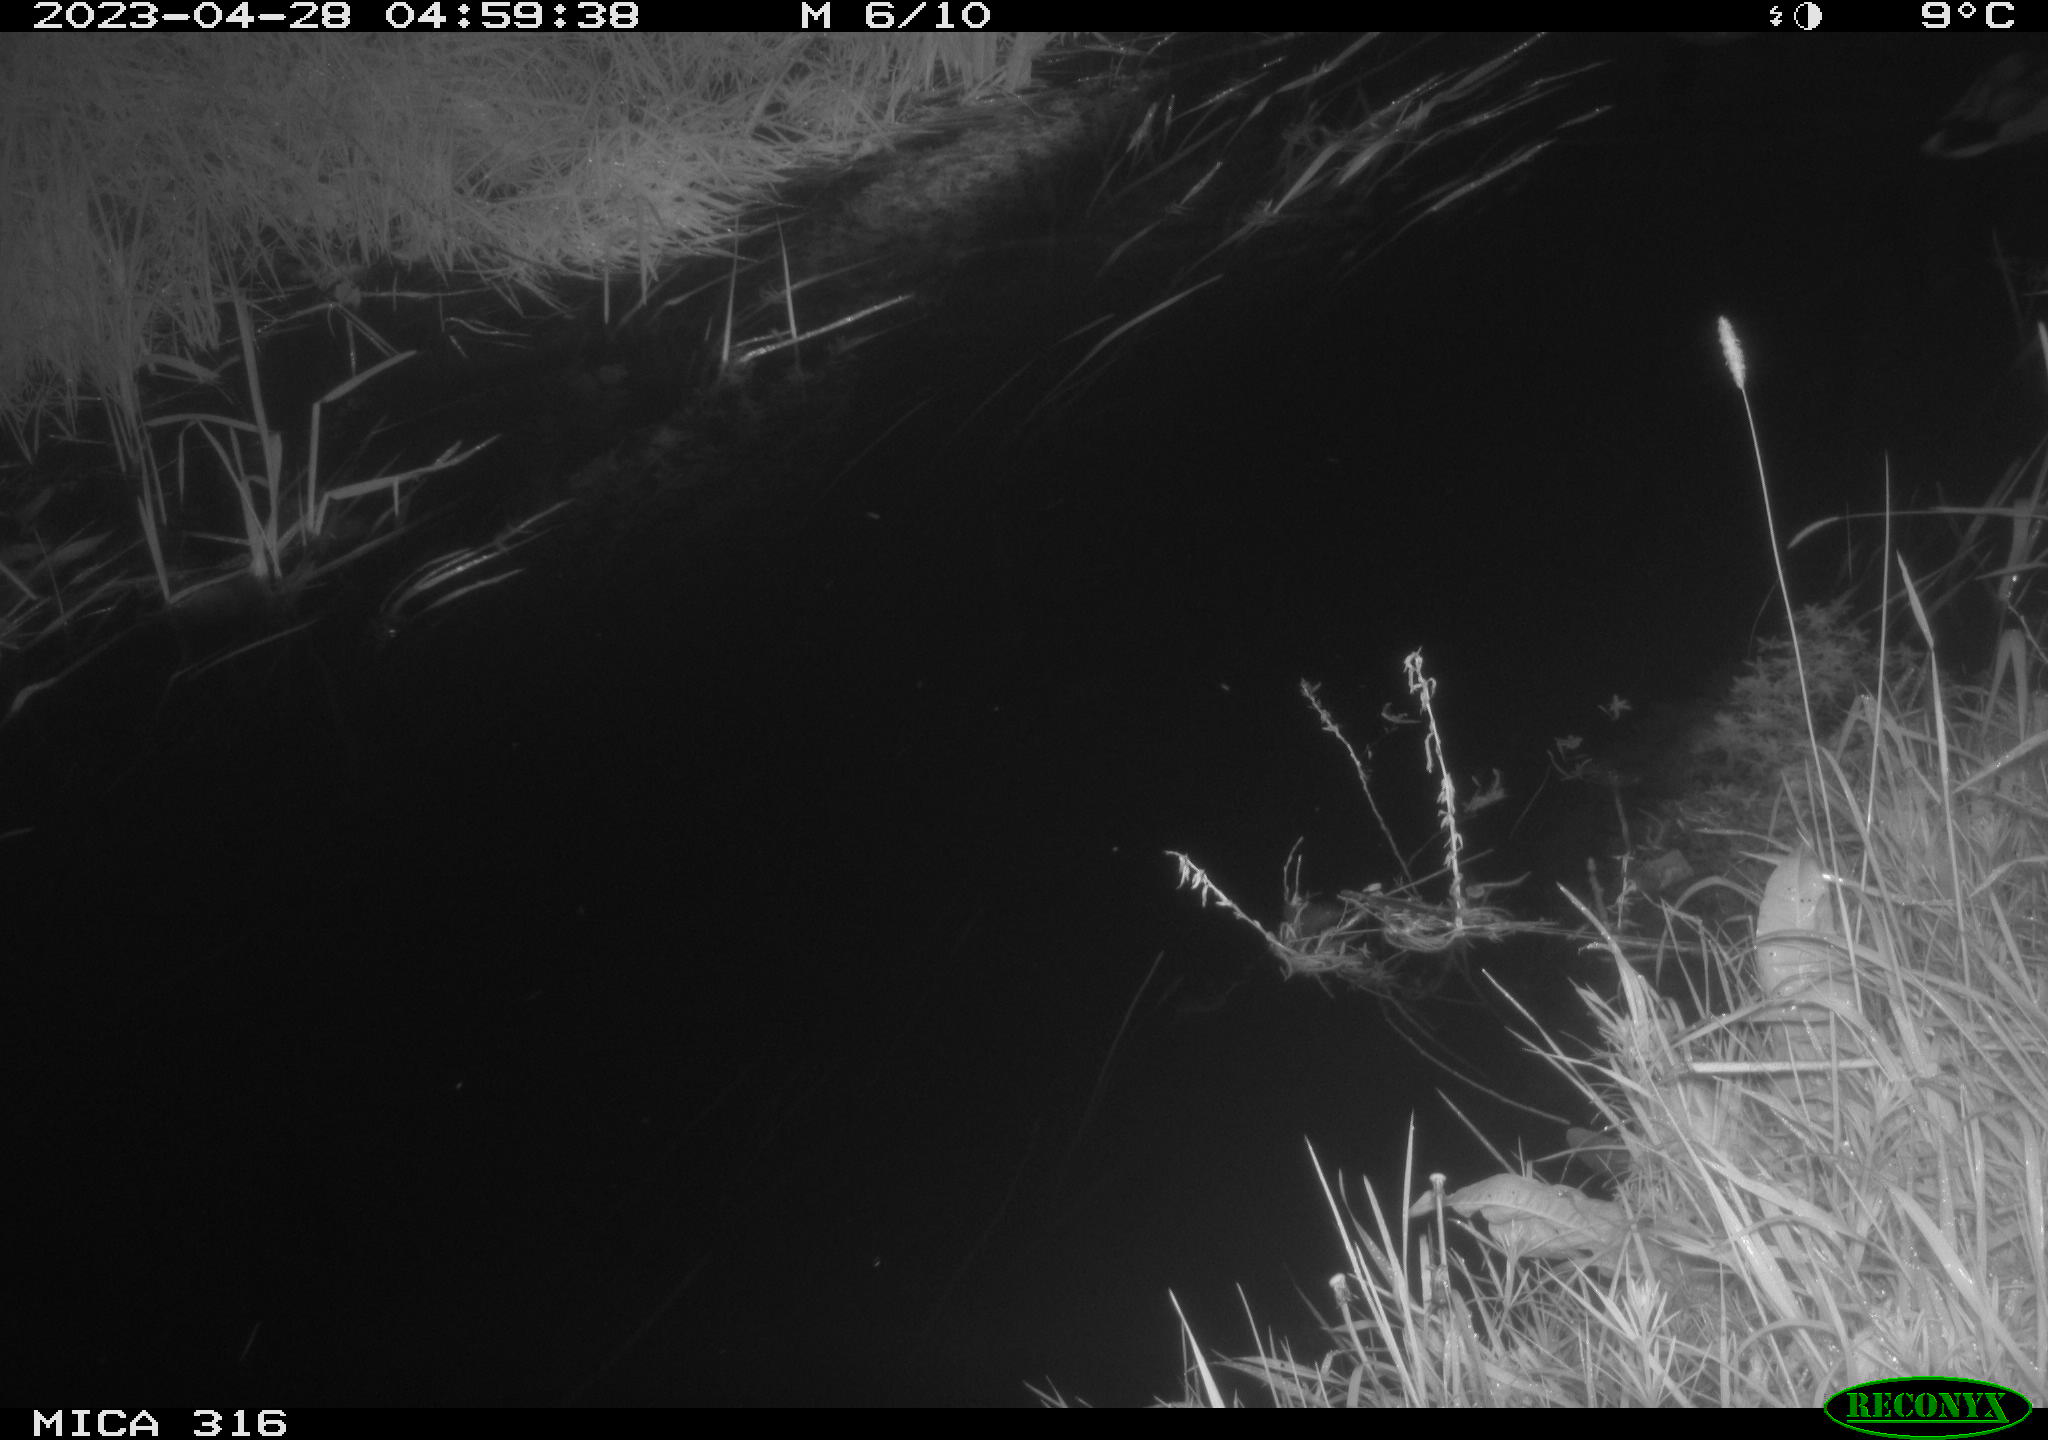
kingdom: Animalia
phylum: Chordata
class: Aves
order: Anseriformes
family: Anatidae
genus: Anas
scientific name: Anas
